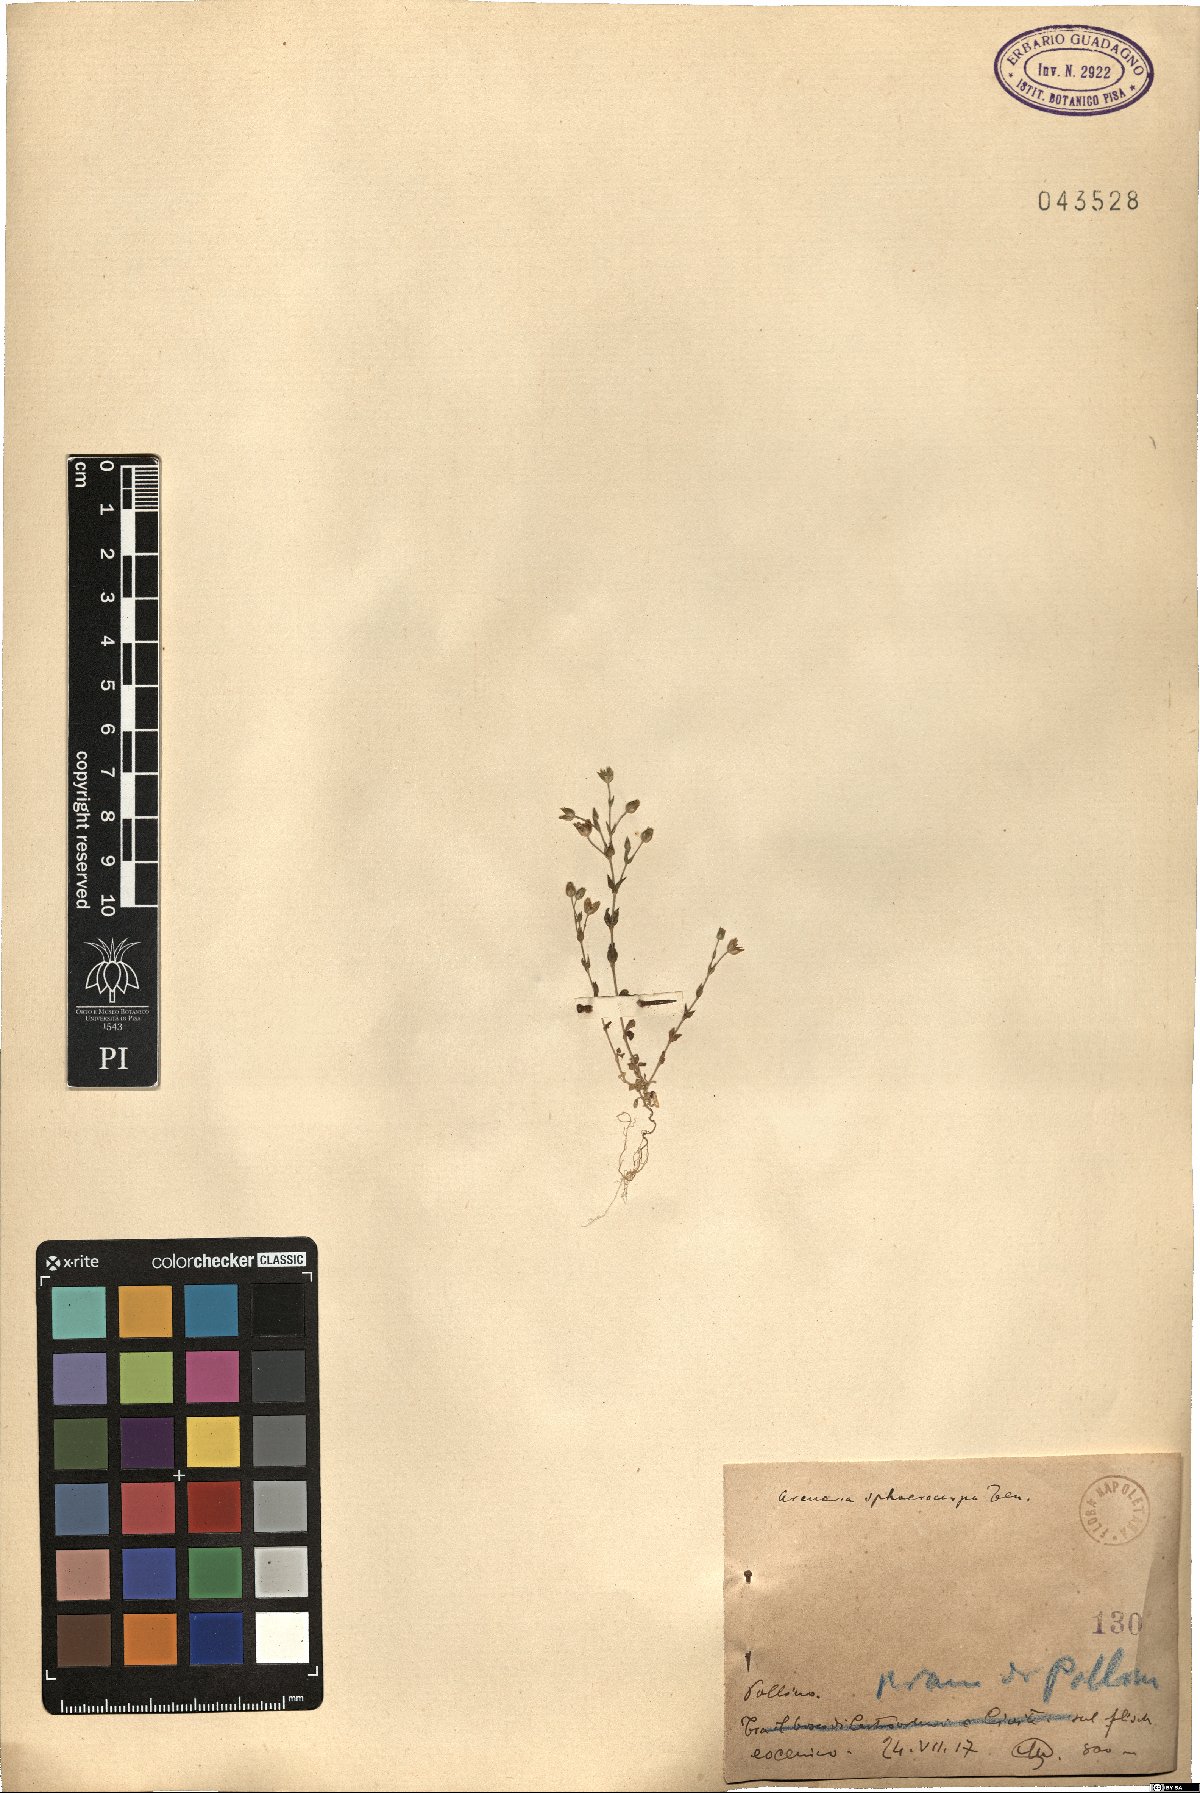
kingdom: Plantae
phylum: Tracheophyta
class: Magnoliopsida
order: Caryophyllales
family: Caryophyllaceae
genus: Arenaria
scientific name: Arenaria serpyllifolia
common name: Thyme-leaved sandwort
